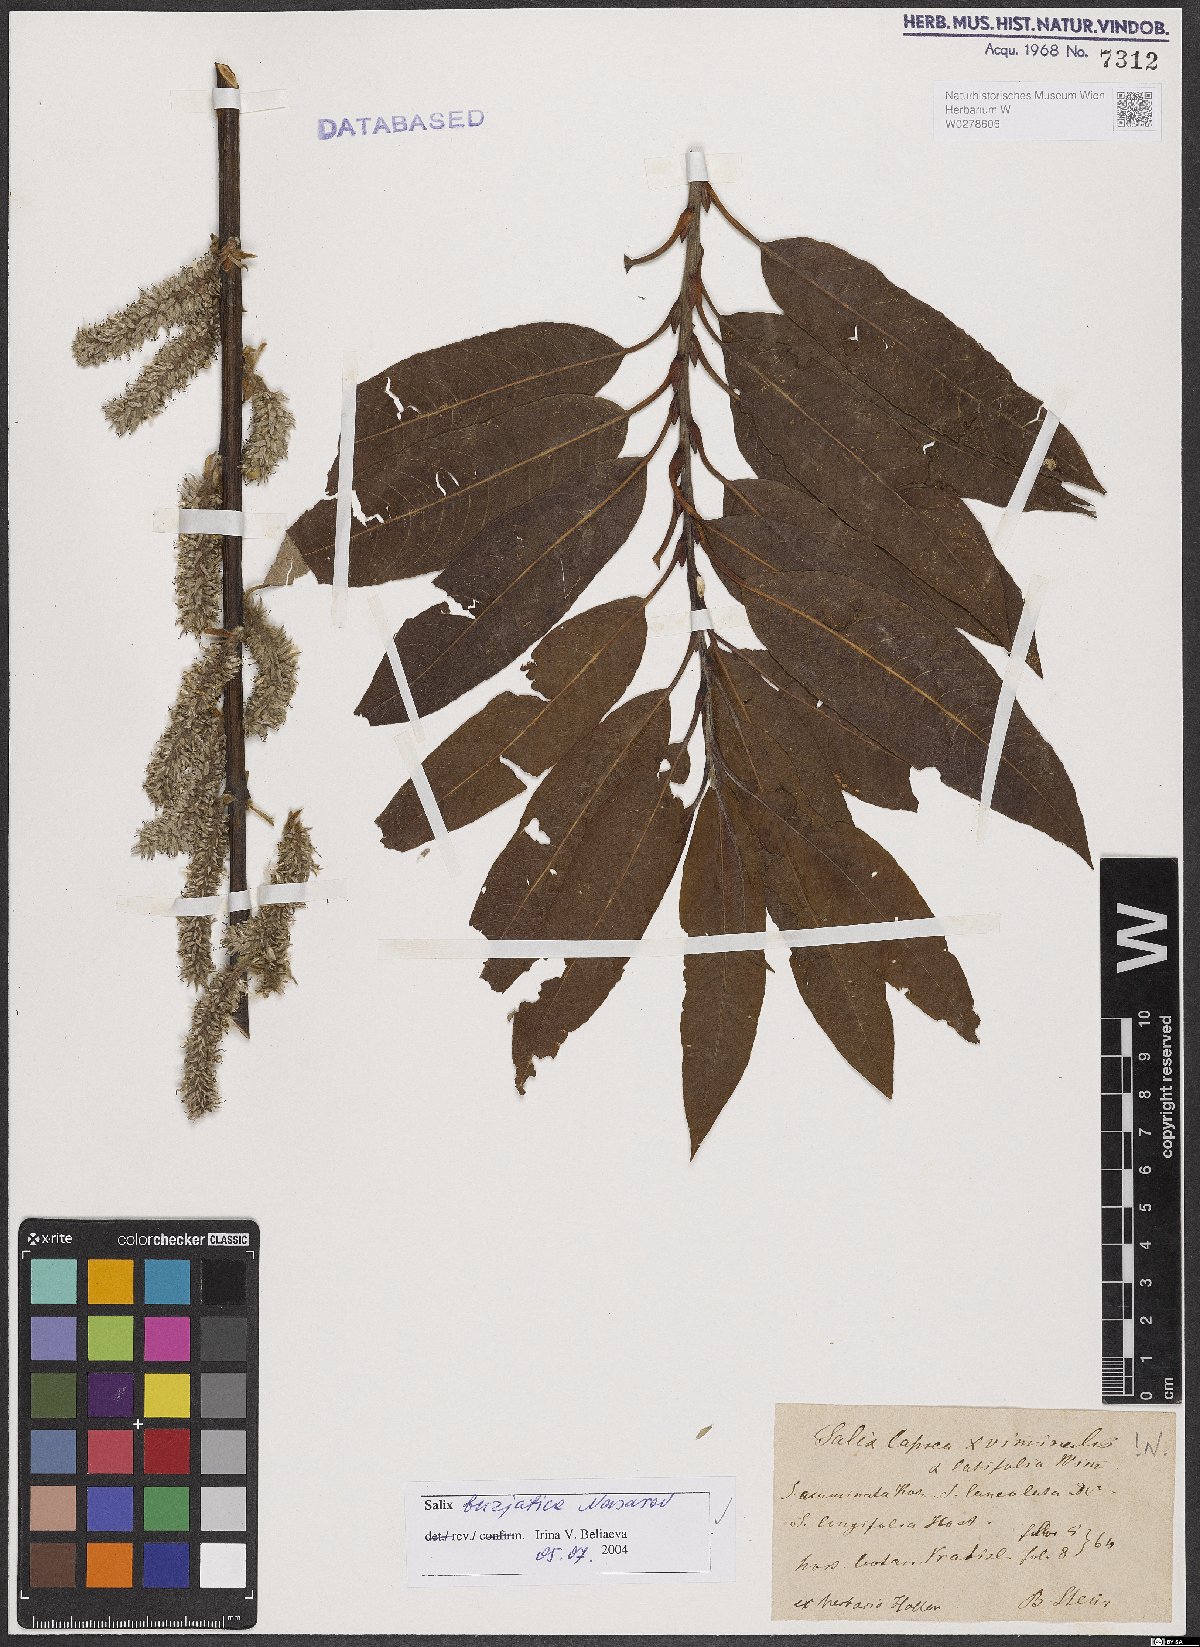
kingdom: Plantae
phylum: Tracheophyta
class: Magnoliopsida
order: Malpighiales
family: Salicaceae
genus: Salix
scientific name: Salix gmelinii
